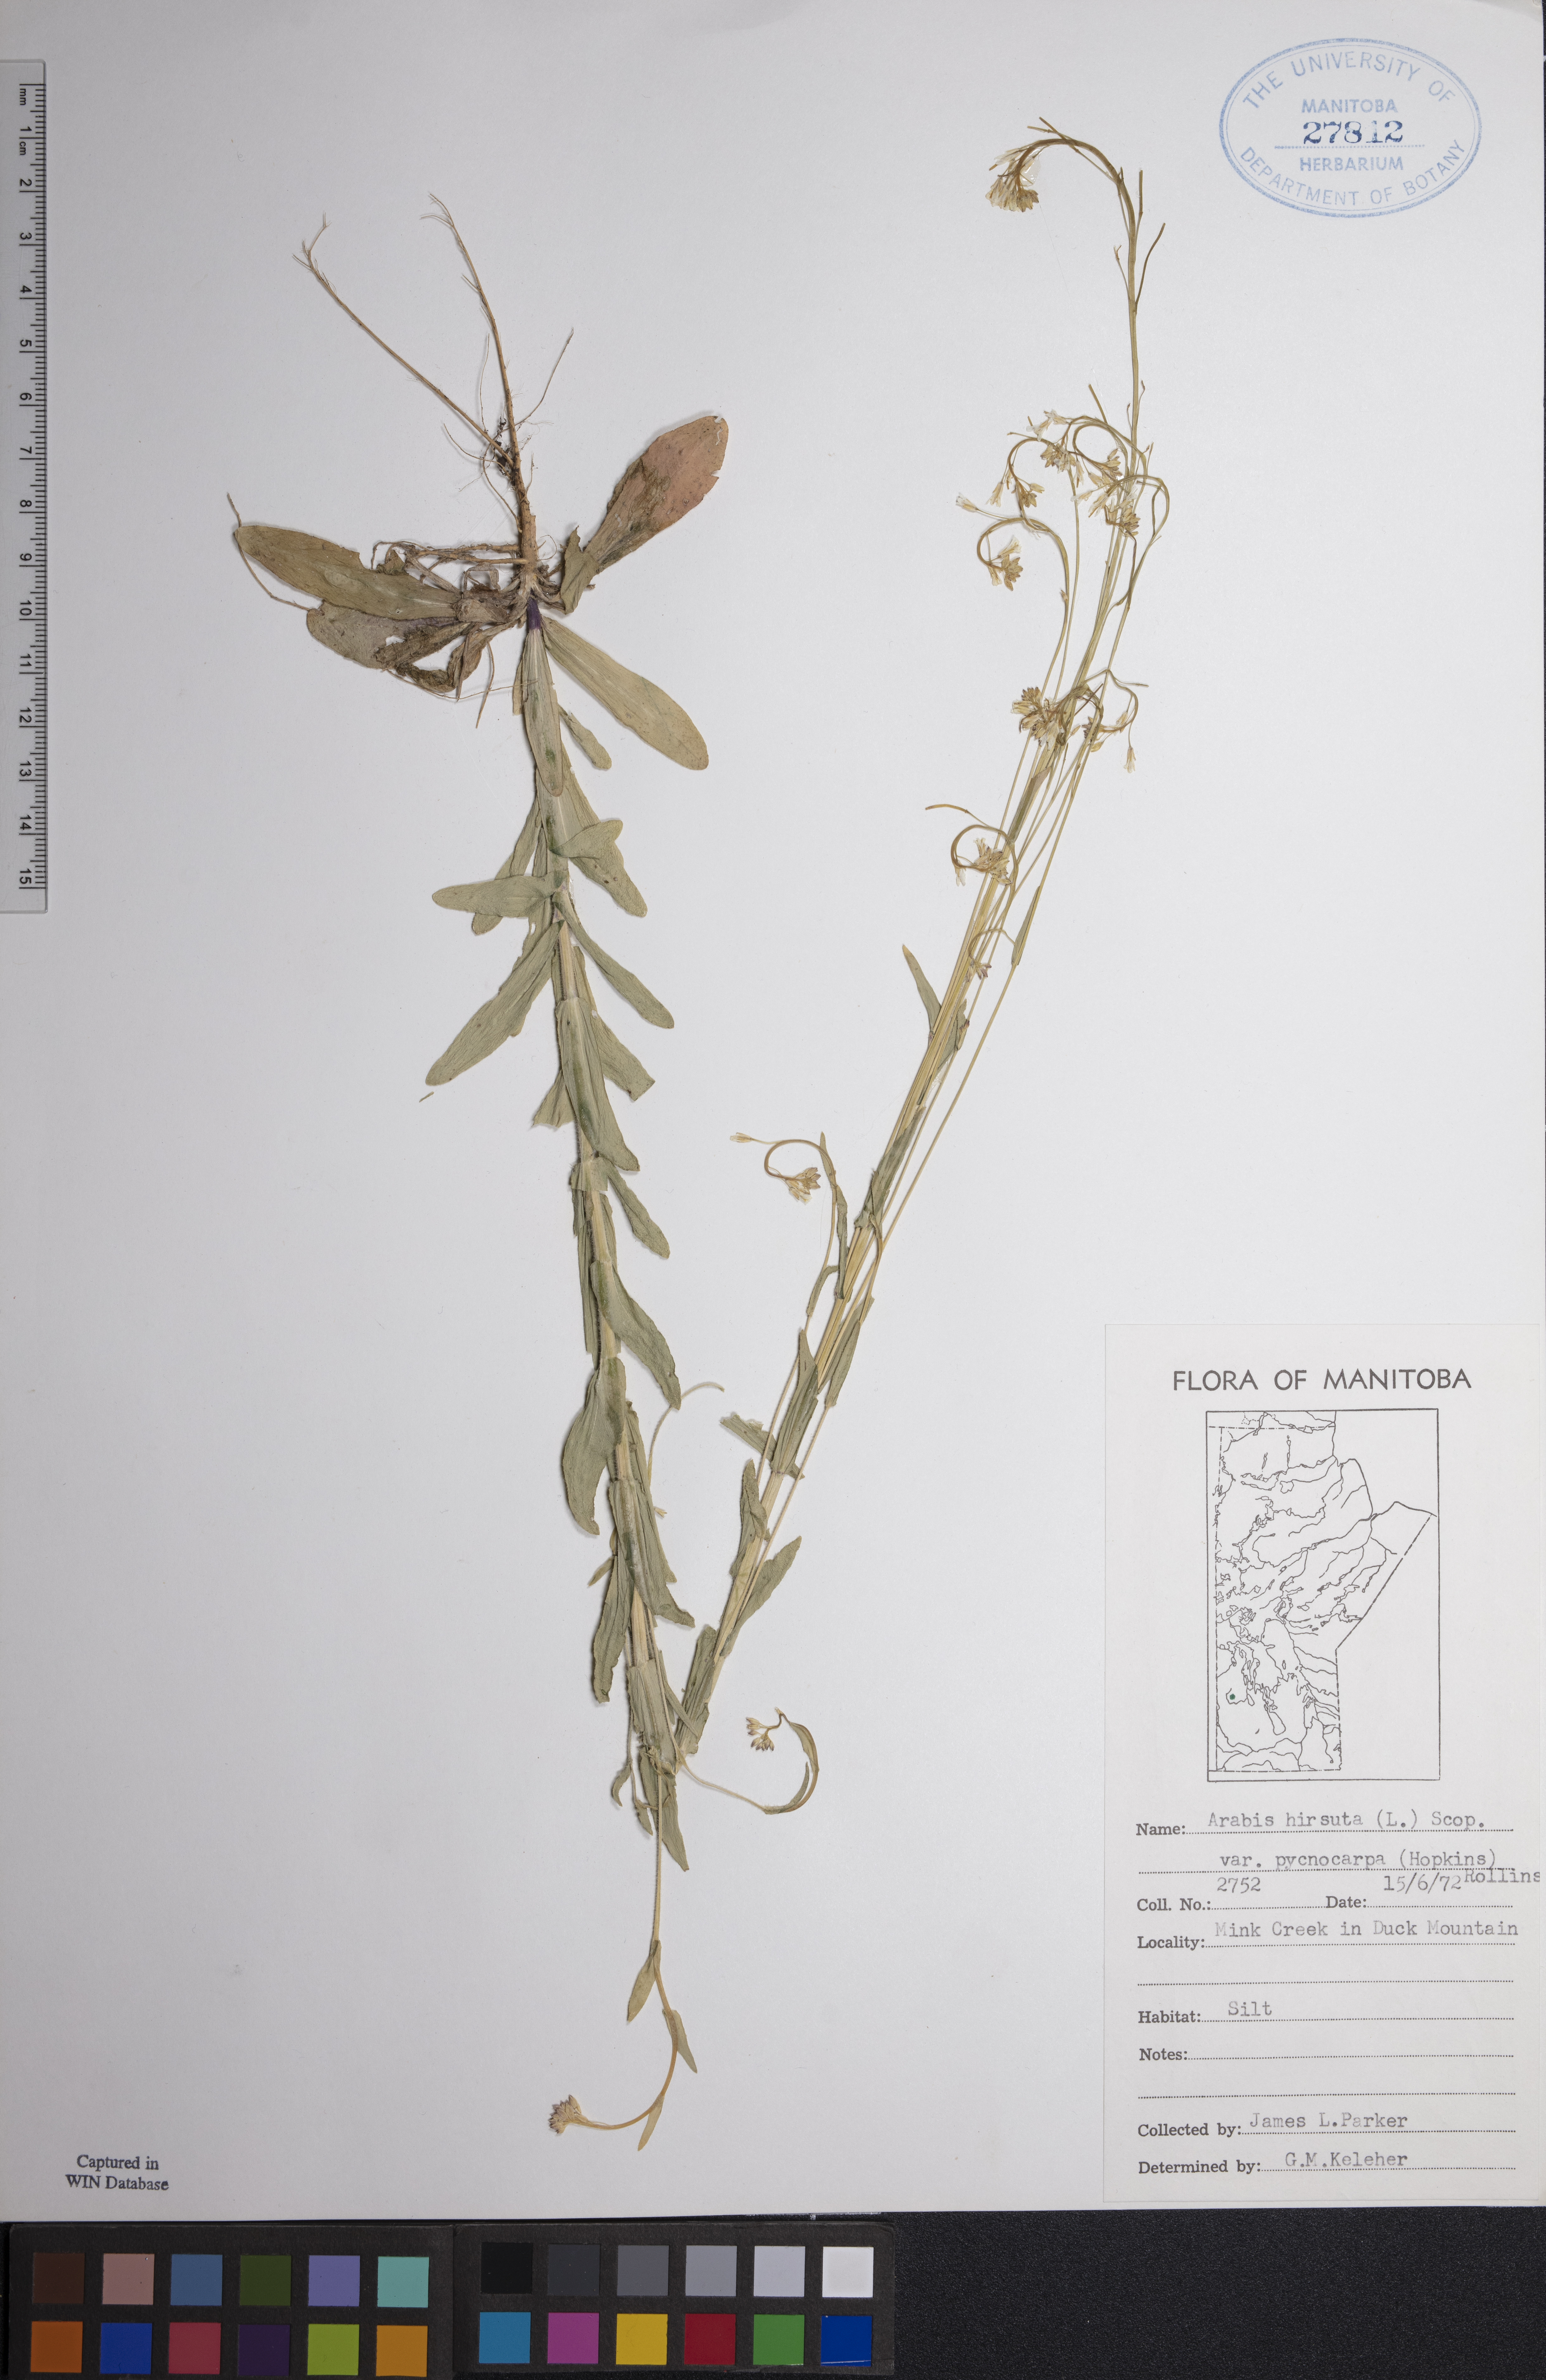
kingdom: Plantae
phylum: Tracheophyta
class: Magnoliopsida
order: Brassicales
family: Brassicaceae
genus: Arabis
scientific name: Arabis pycnocarpa
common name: Blushing rockcress
